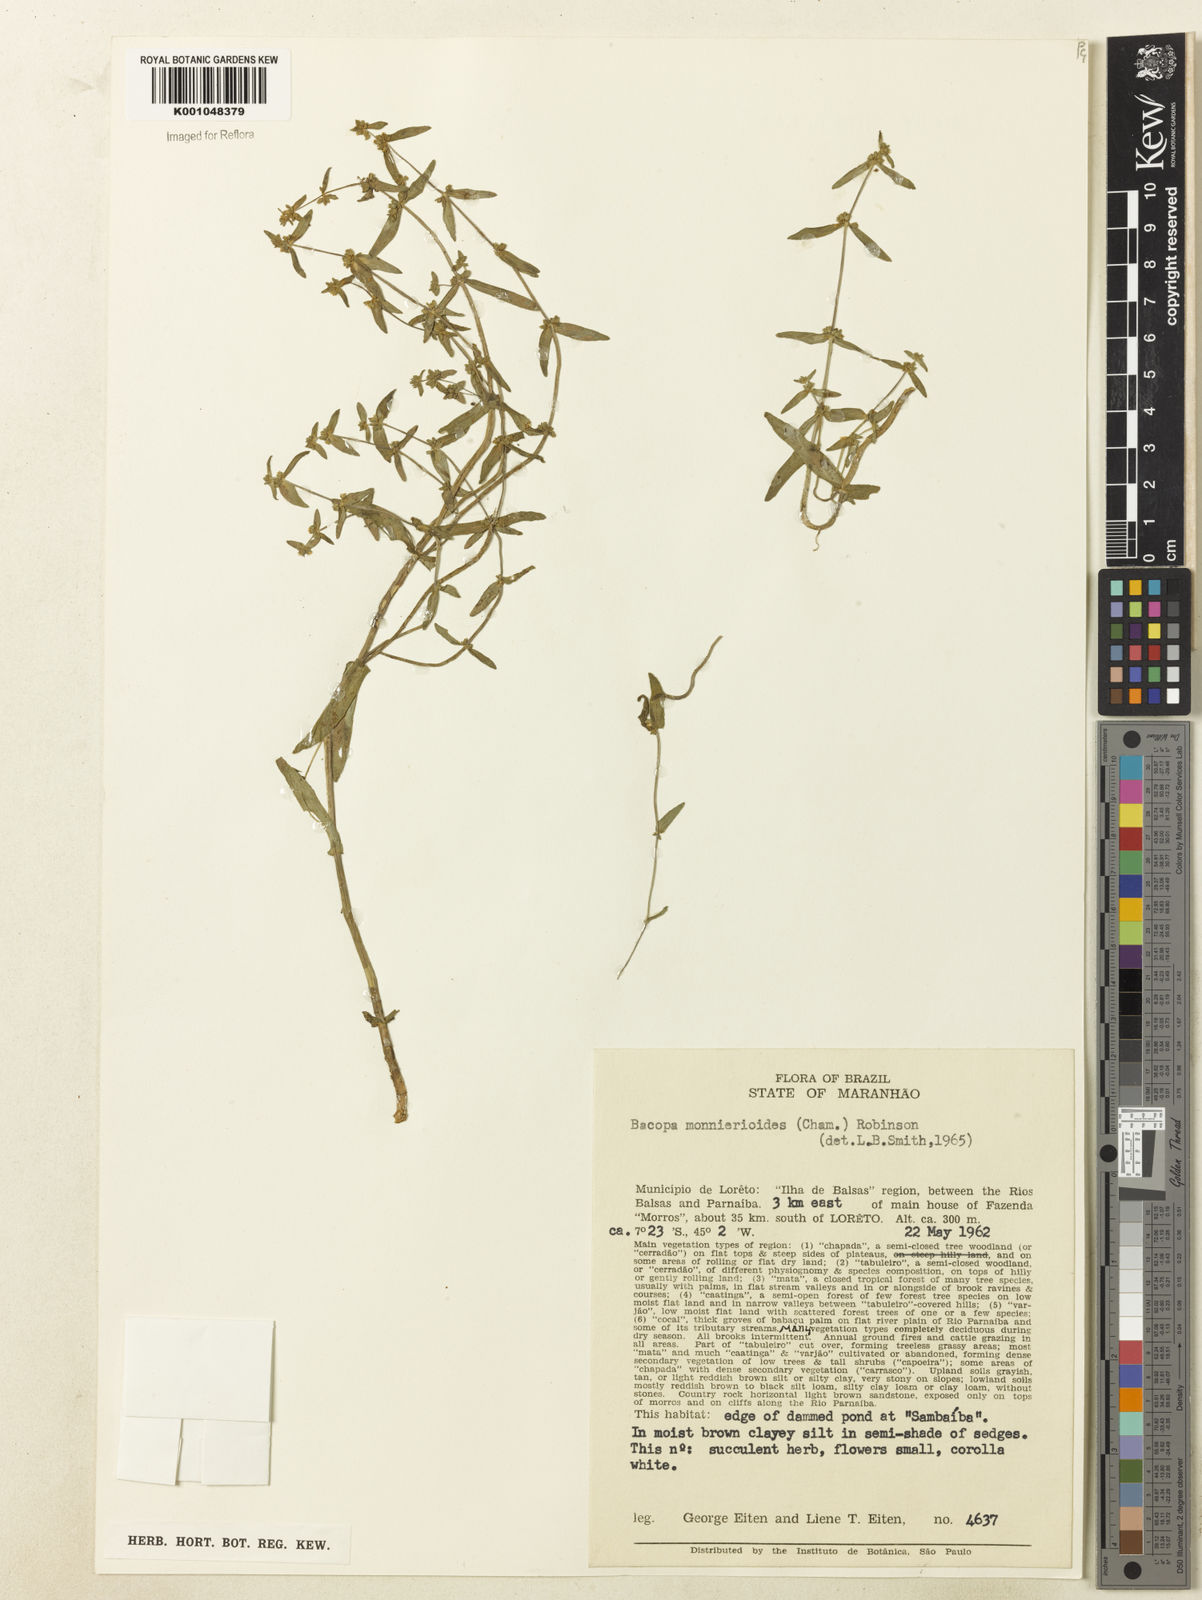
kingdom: Plantae
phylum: Tracheophyta
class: Magnoliopsida
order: Lamiales
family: Plantaginaceae
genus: Bacopa
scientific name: Bacopa monnierioides
